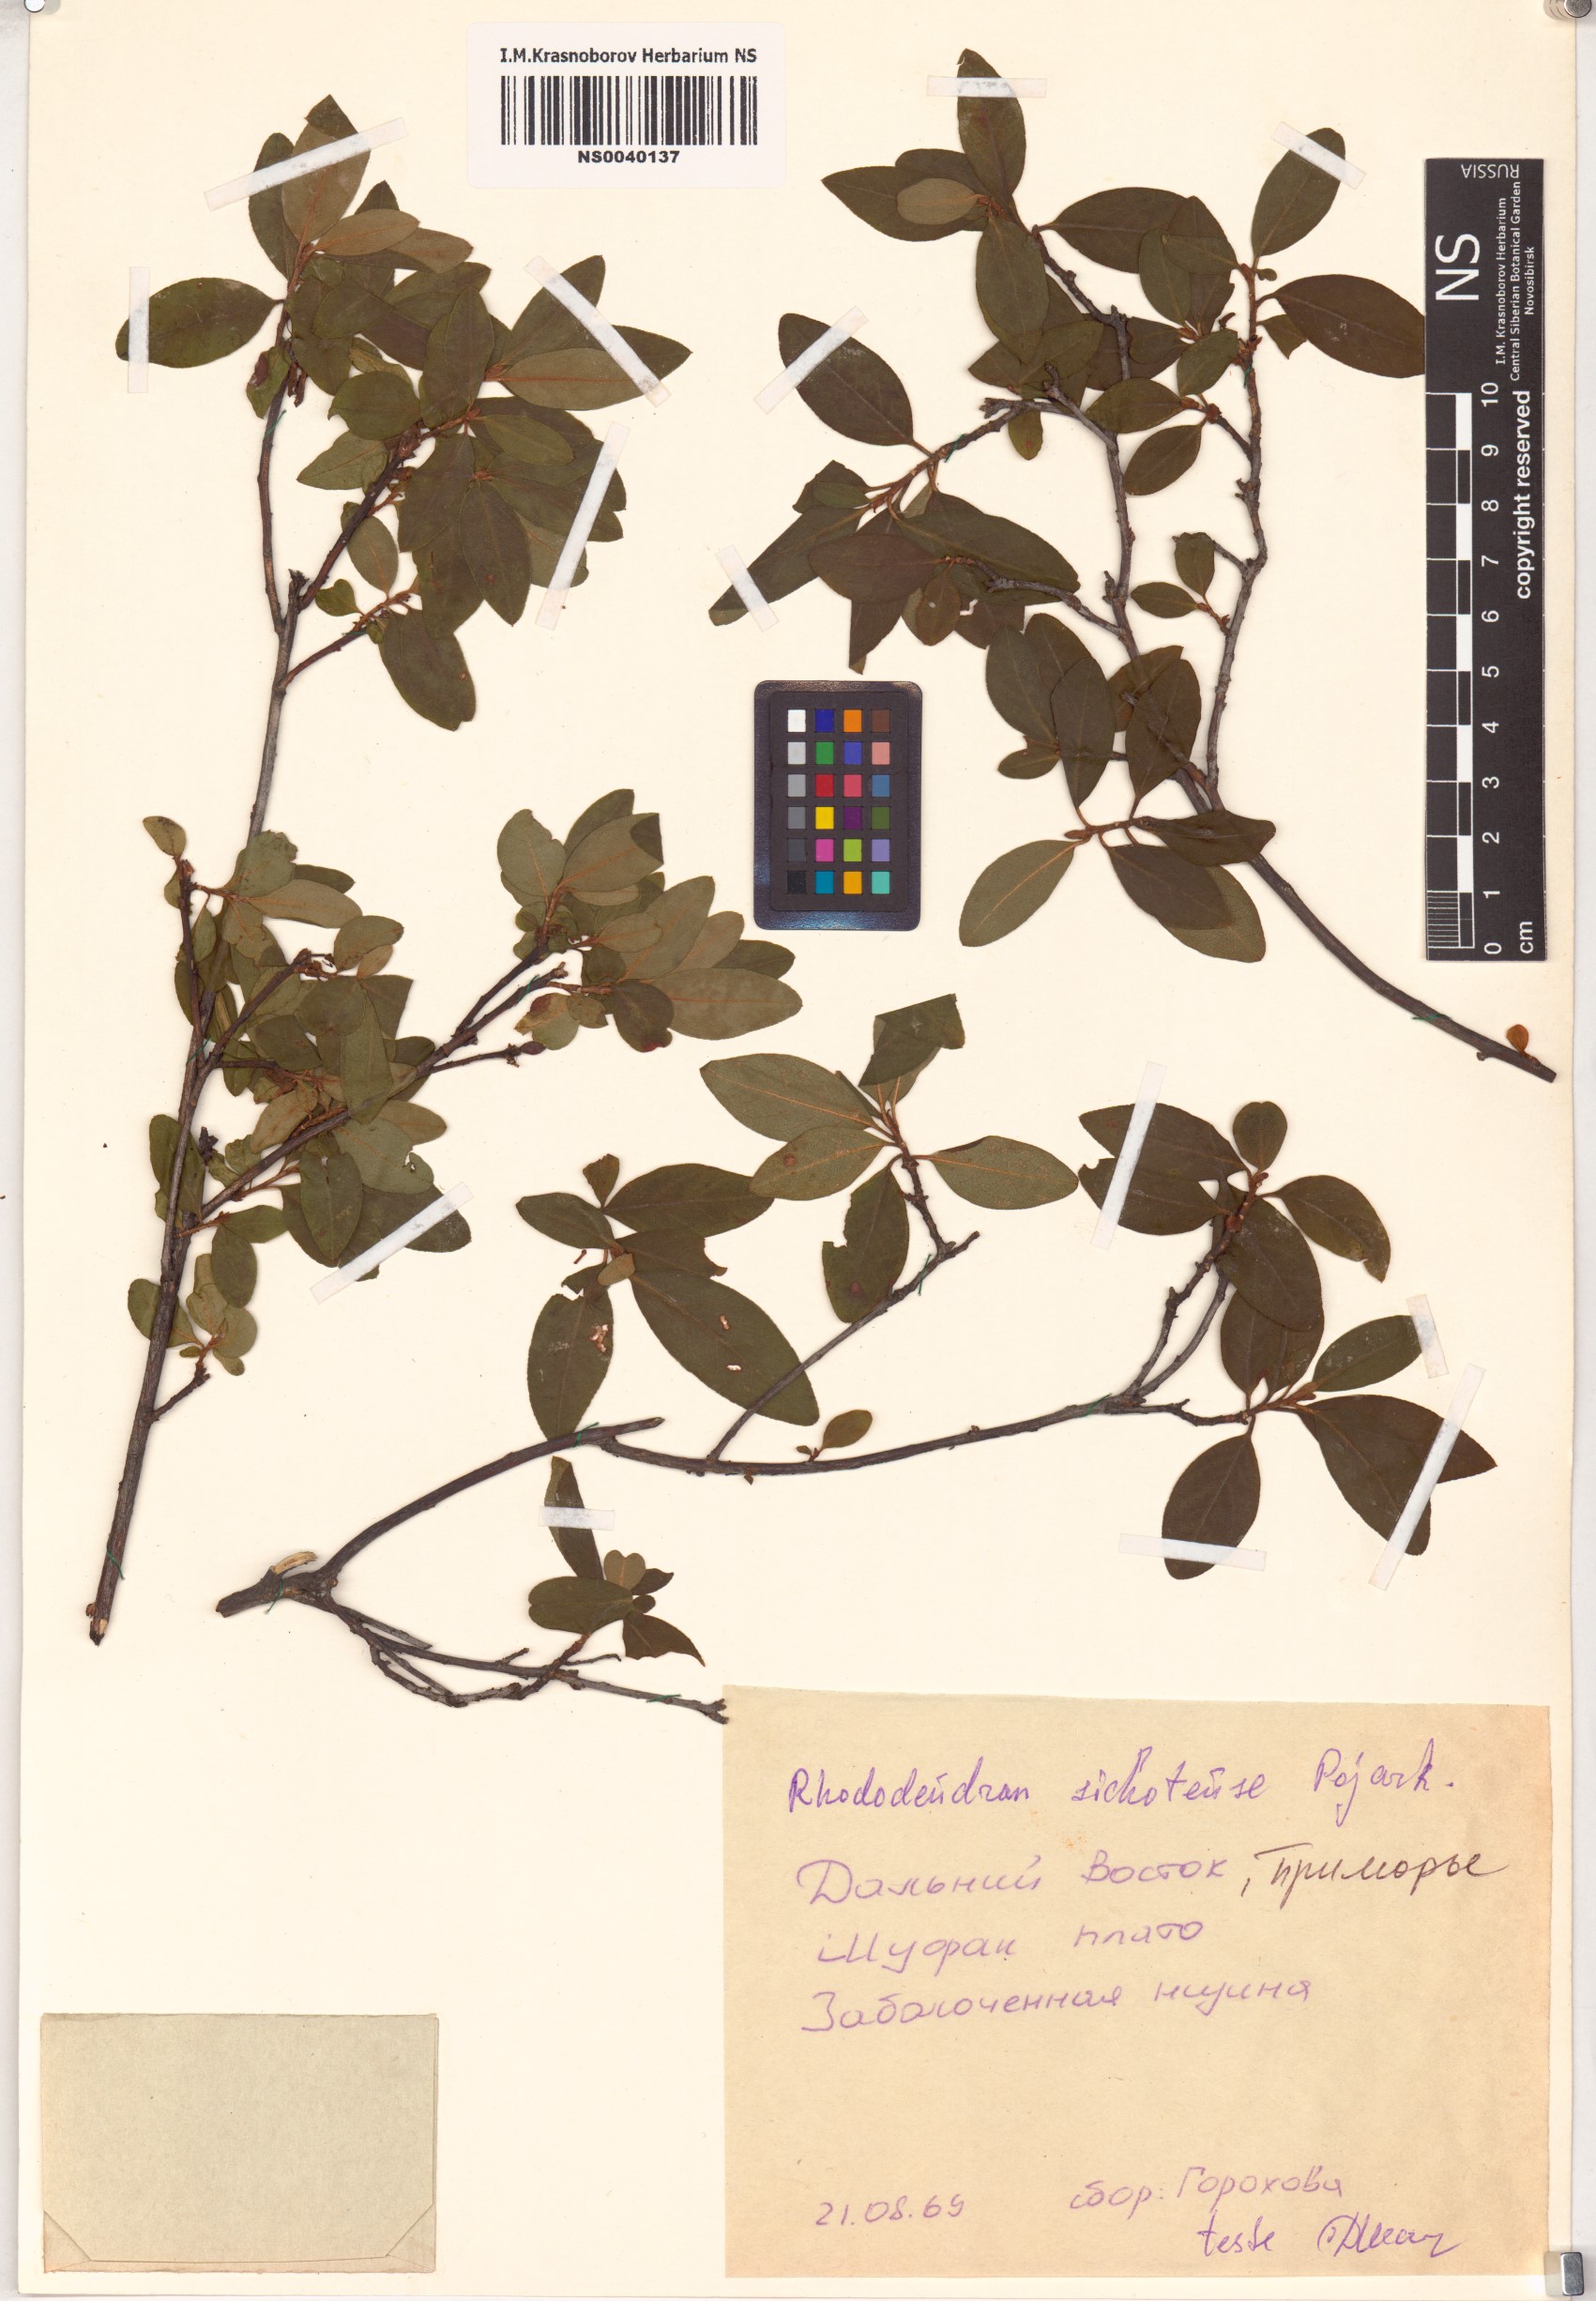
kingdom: Plantae
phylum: Tracheophyta
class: Magnoliopsida
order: Ericales
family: Ericaceae
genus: Rhododendron
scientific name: Rhododendron sichotense
